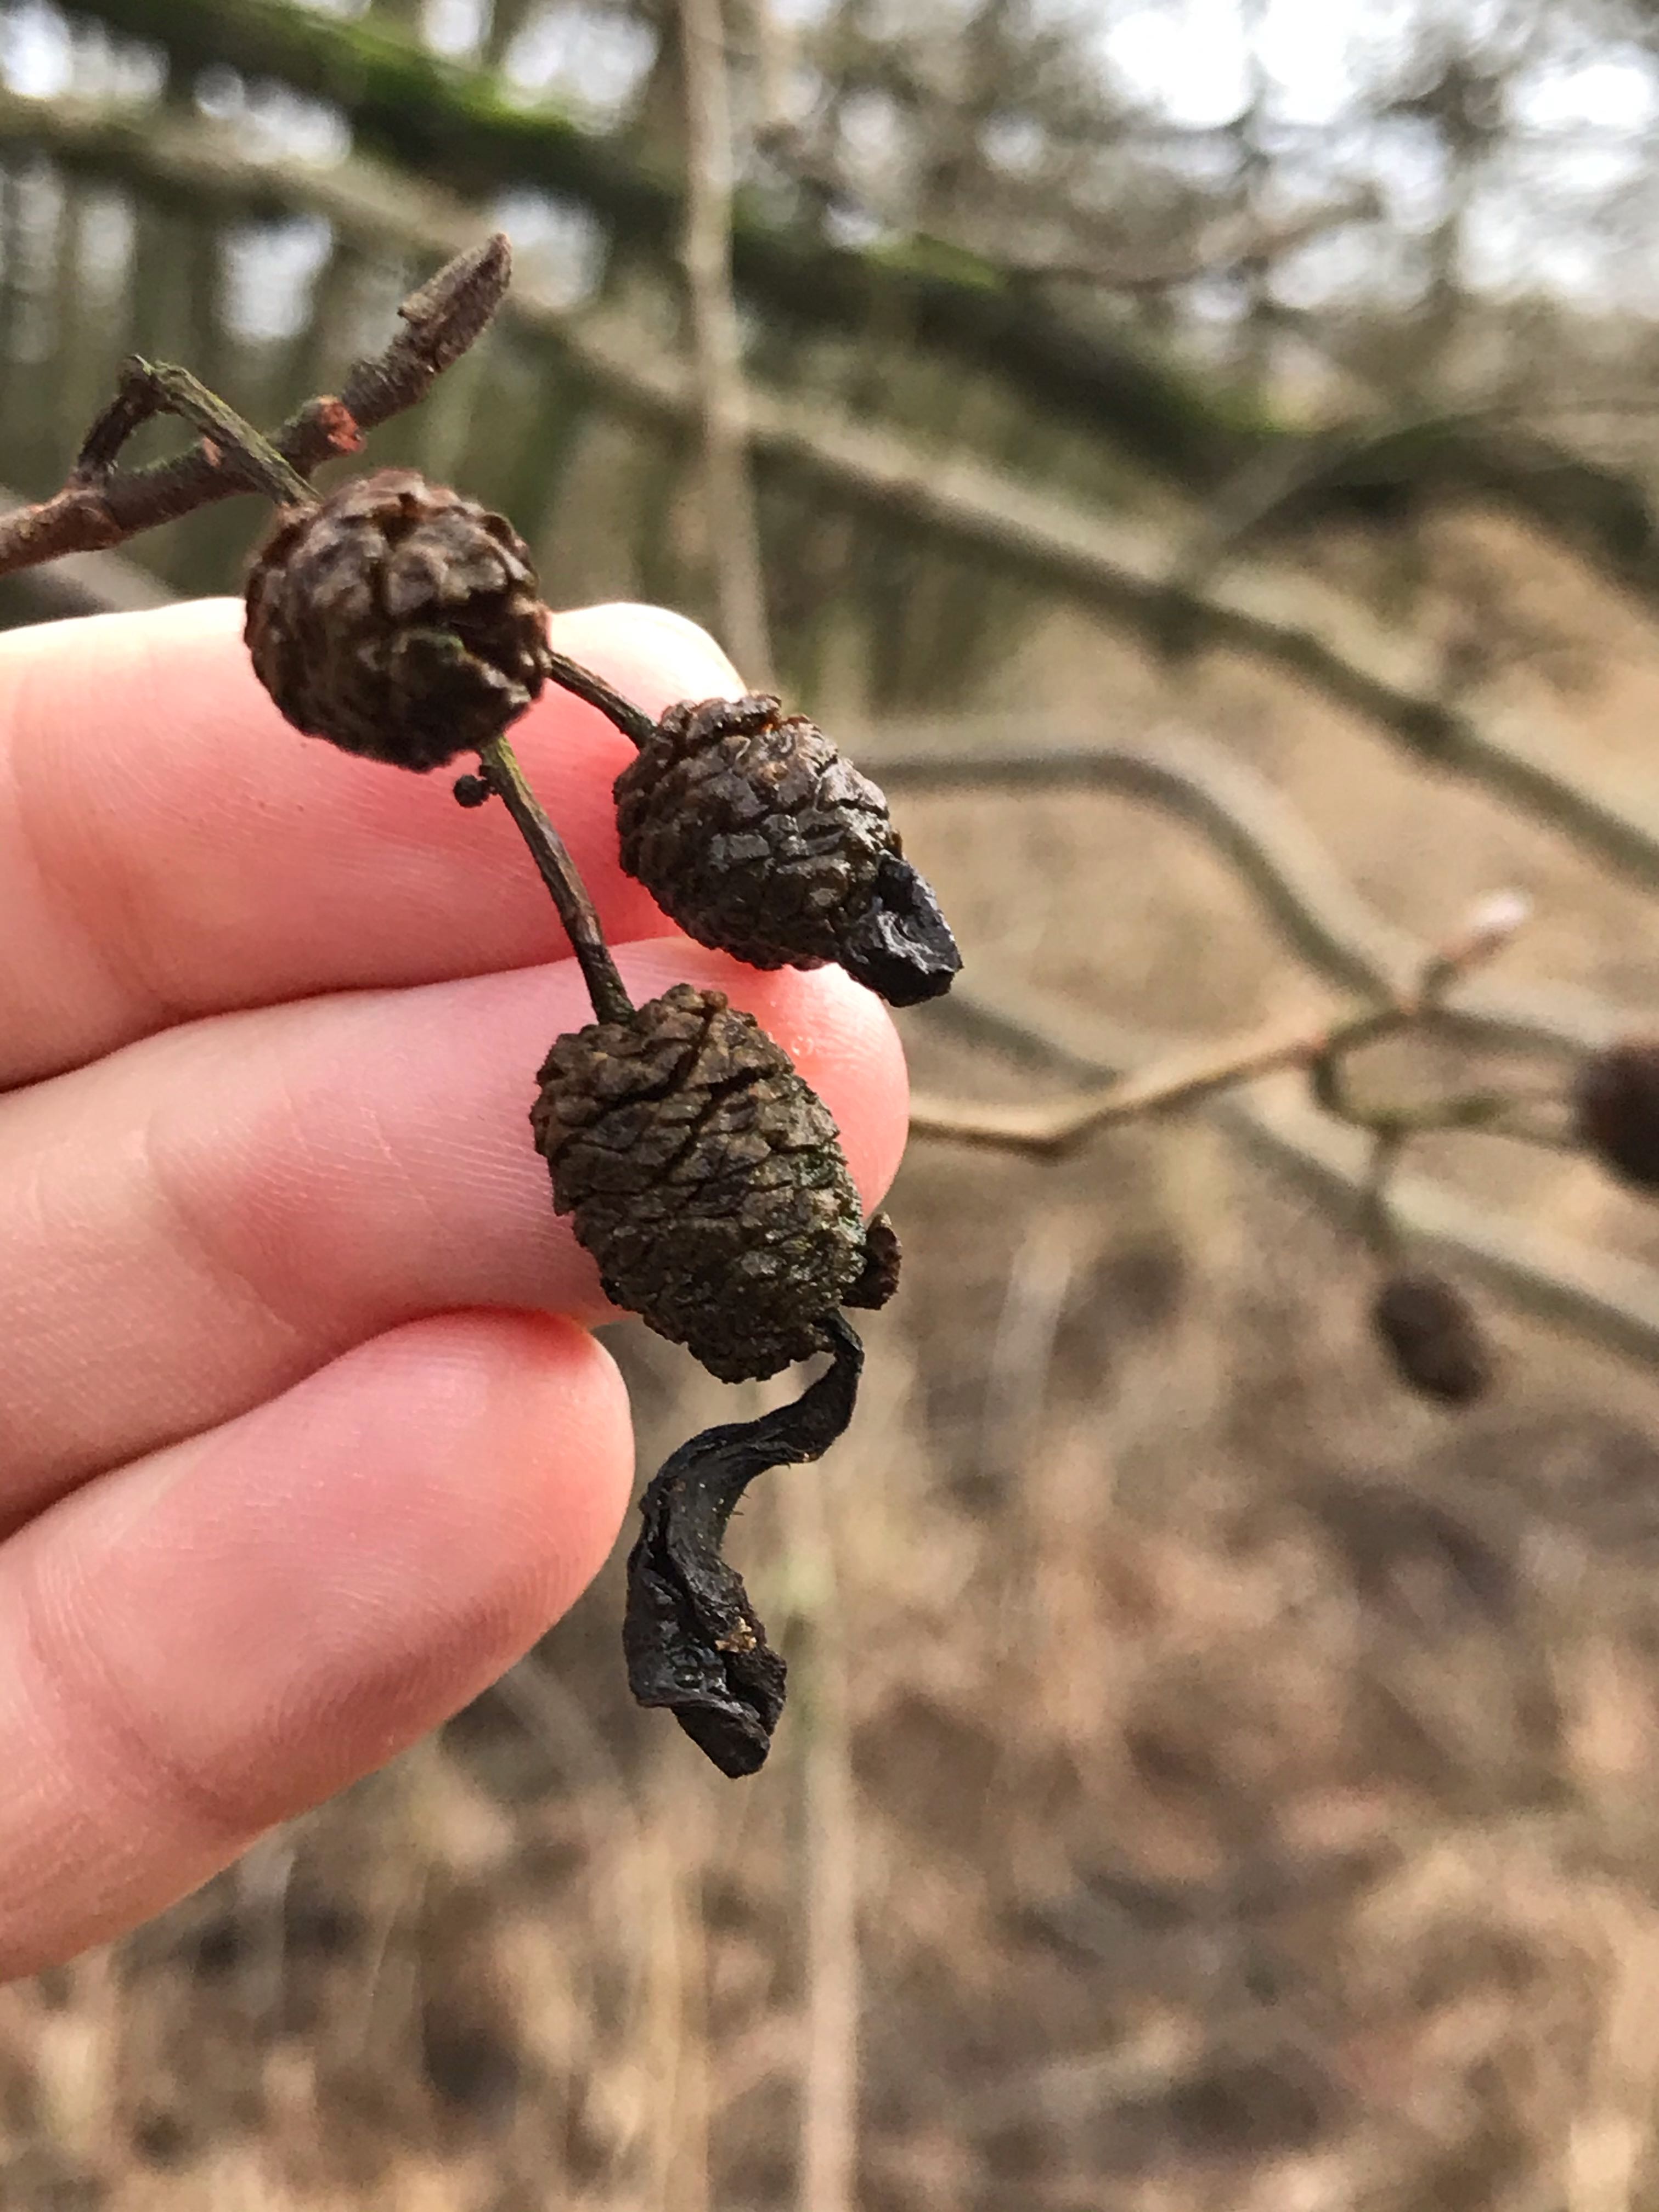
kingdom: Fungi
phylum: Ascomycota
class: Taphrinomycetes
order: Taphrinales
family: Taphrinaceae
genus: Taphrina
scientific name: Taphrina alni
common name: Alder tongue
